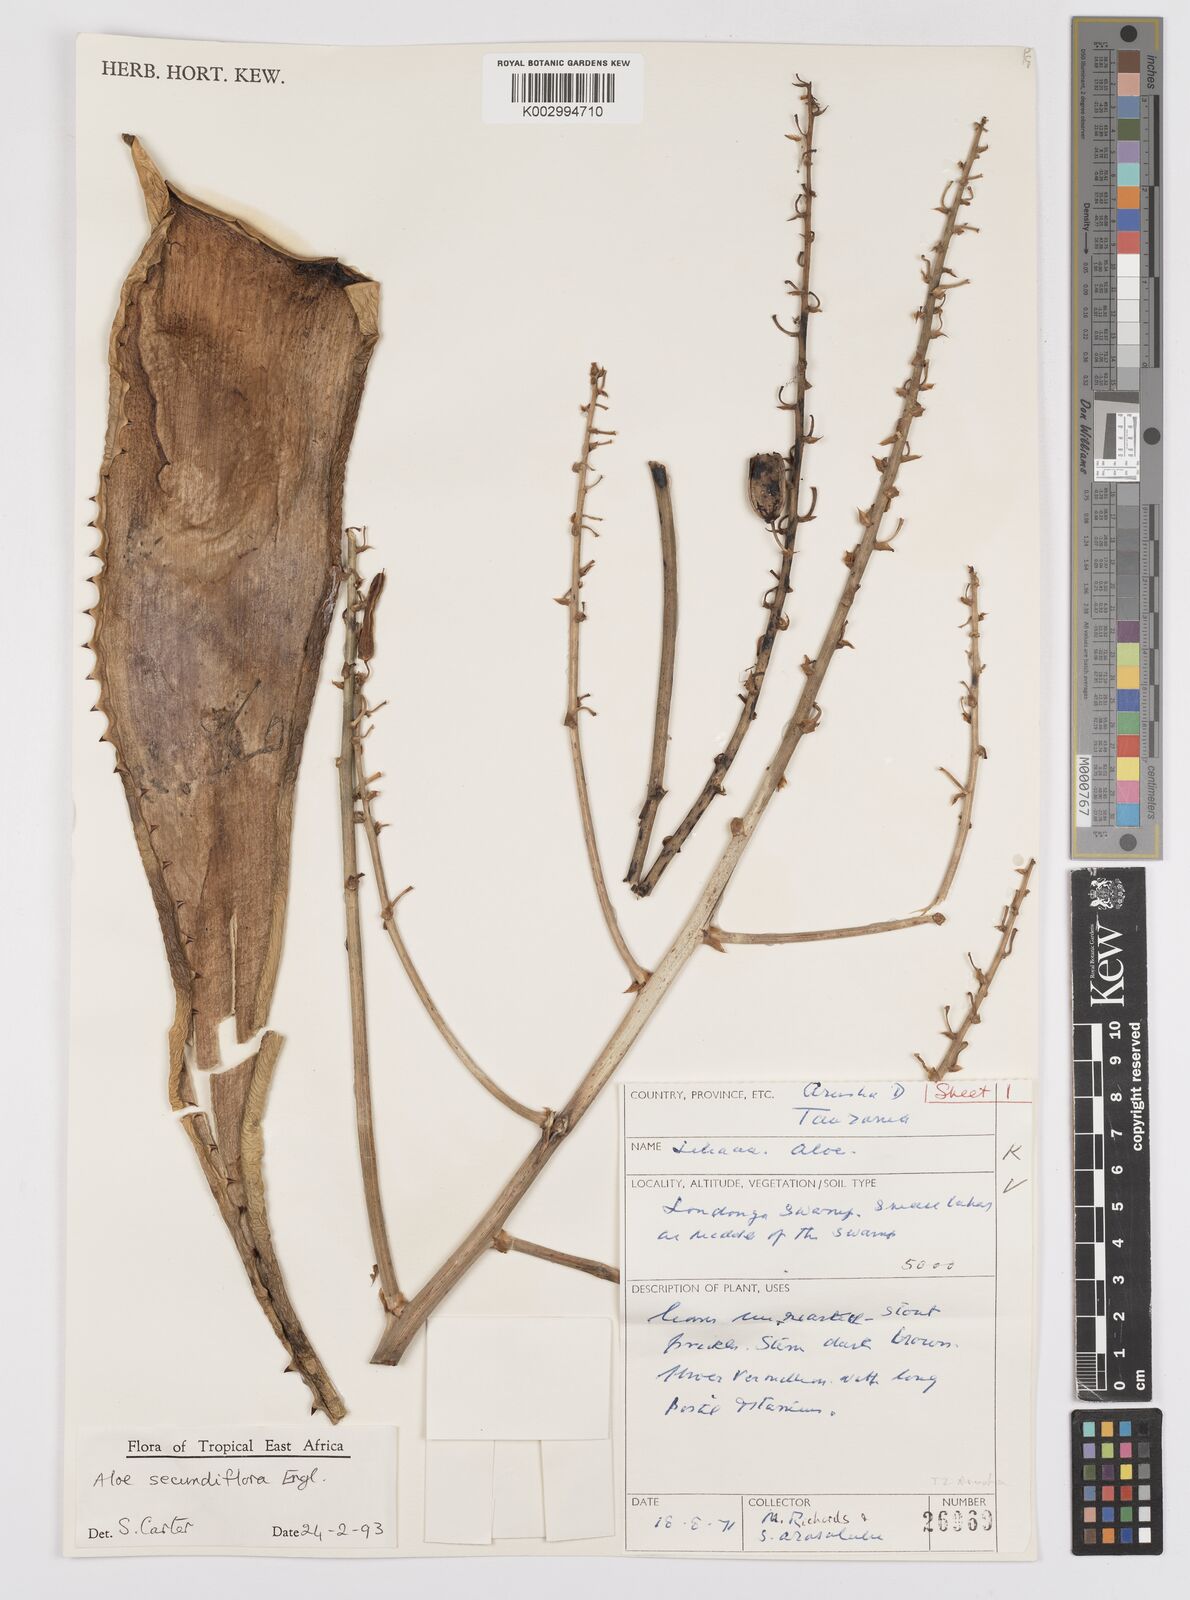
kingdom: Plantae
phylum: Tracheophyta
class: Liliopsida
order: Asparagales
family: Asphodelaceae
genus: Aloe
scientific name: Aloe secundiflora
